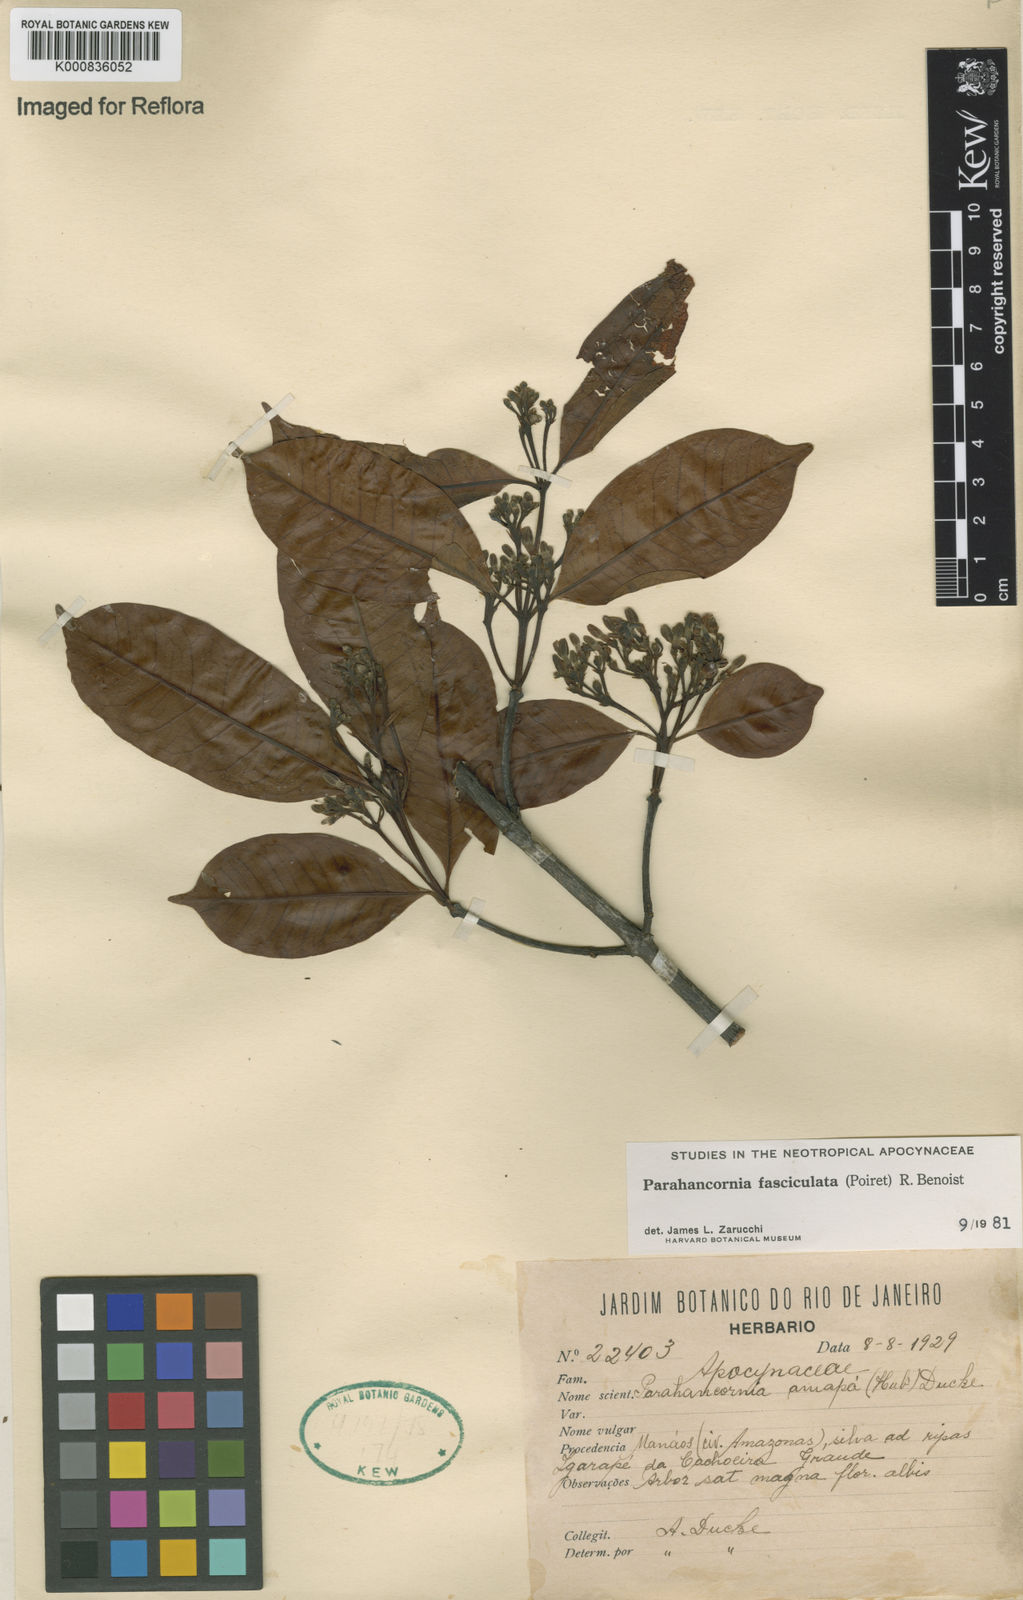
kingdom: Plantae
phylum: Tracheophyta
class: Magnoliopsida
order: Gentianales
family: Apocynaceae
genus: Parahancornia
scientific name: Parahancornia fasciculata
